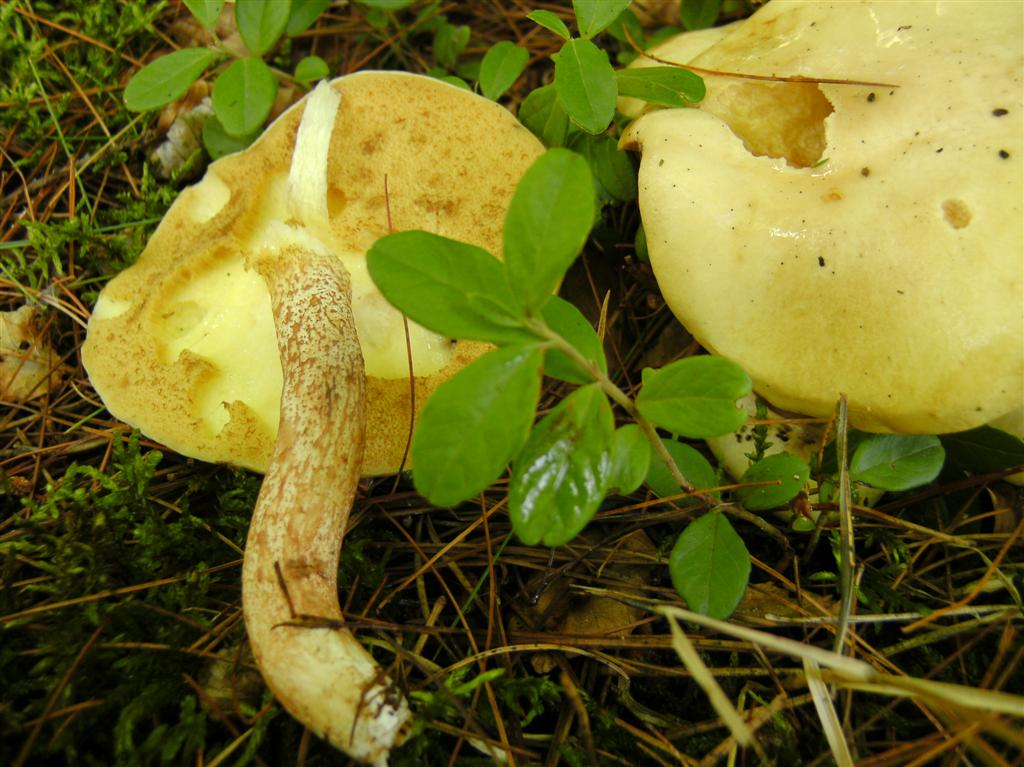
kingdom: Fungi
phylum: Basidiomycota
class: Agaricomycetes
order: Boletales
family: Suillaceae
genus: Suillus
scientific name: Suillus placidus
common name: elfenbens-slimrørhat
